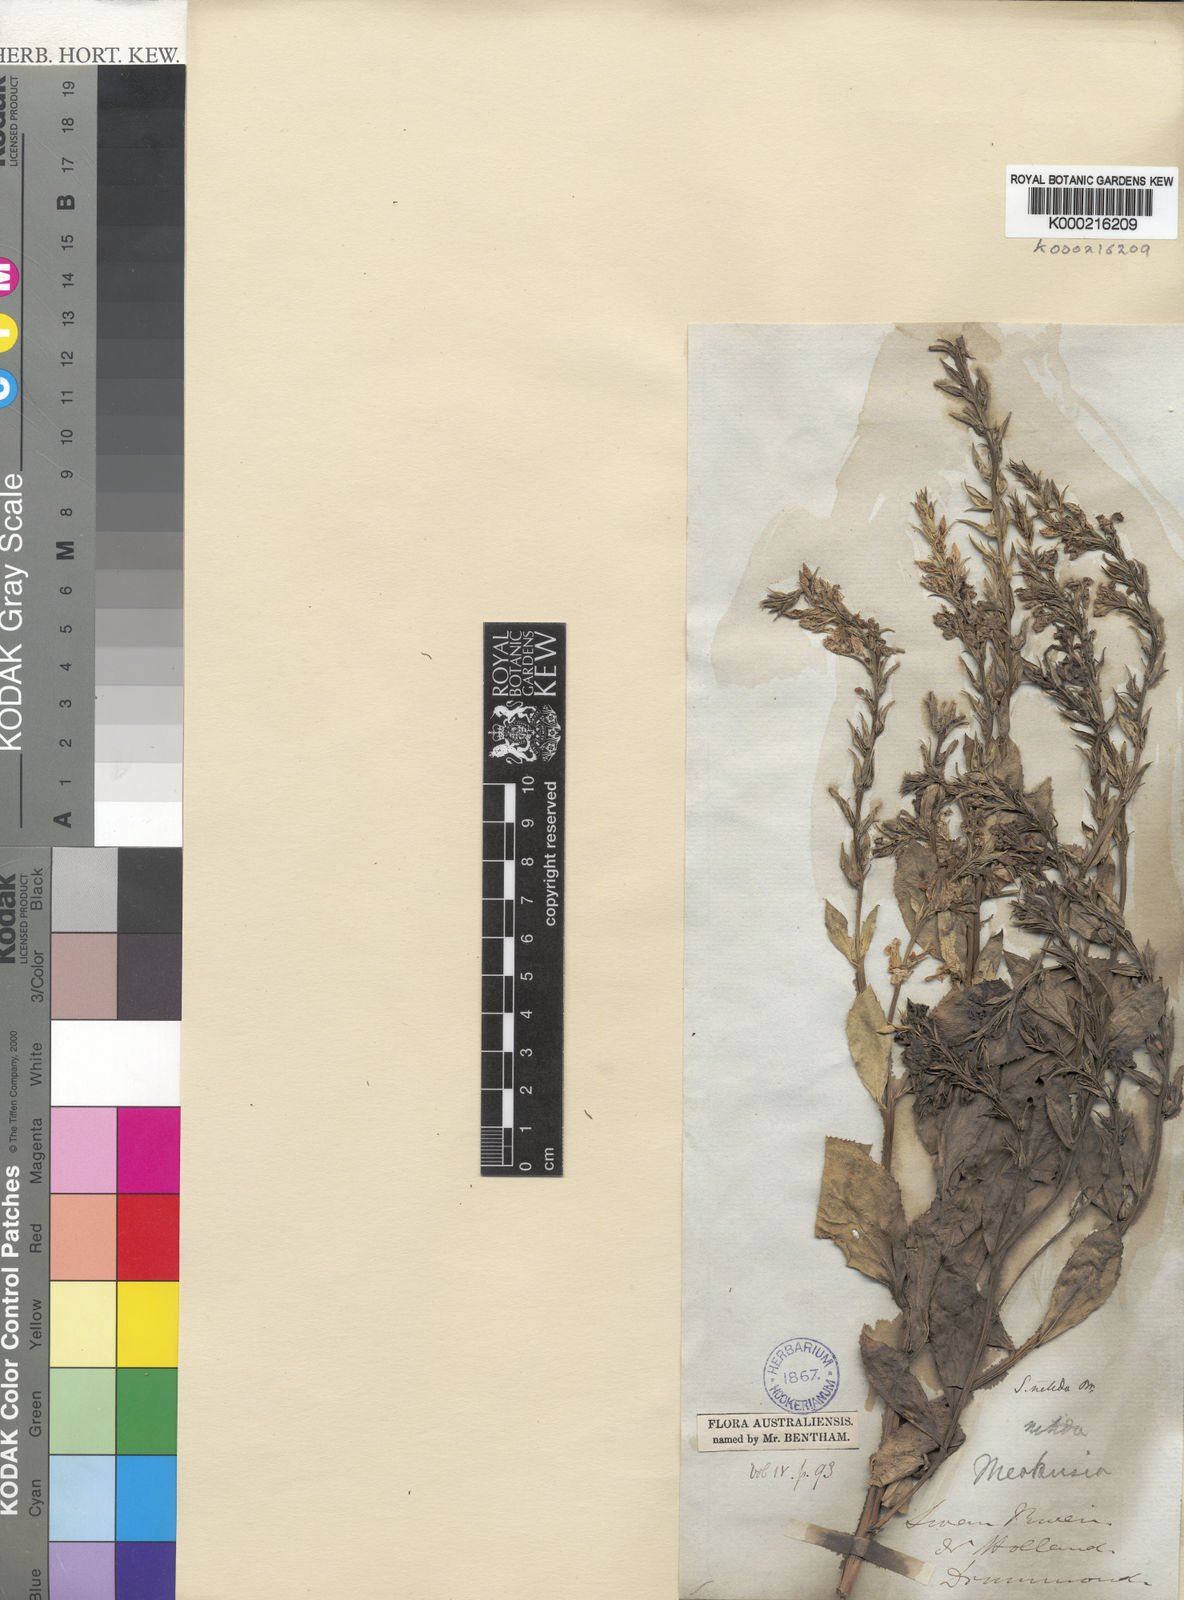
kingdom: Plantae
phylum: Tracheophyta
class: Magnoliopsida
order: Asterales
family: Goodeniaceae
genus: Scaevola
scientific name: Scaevola nitida
